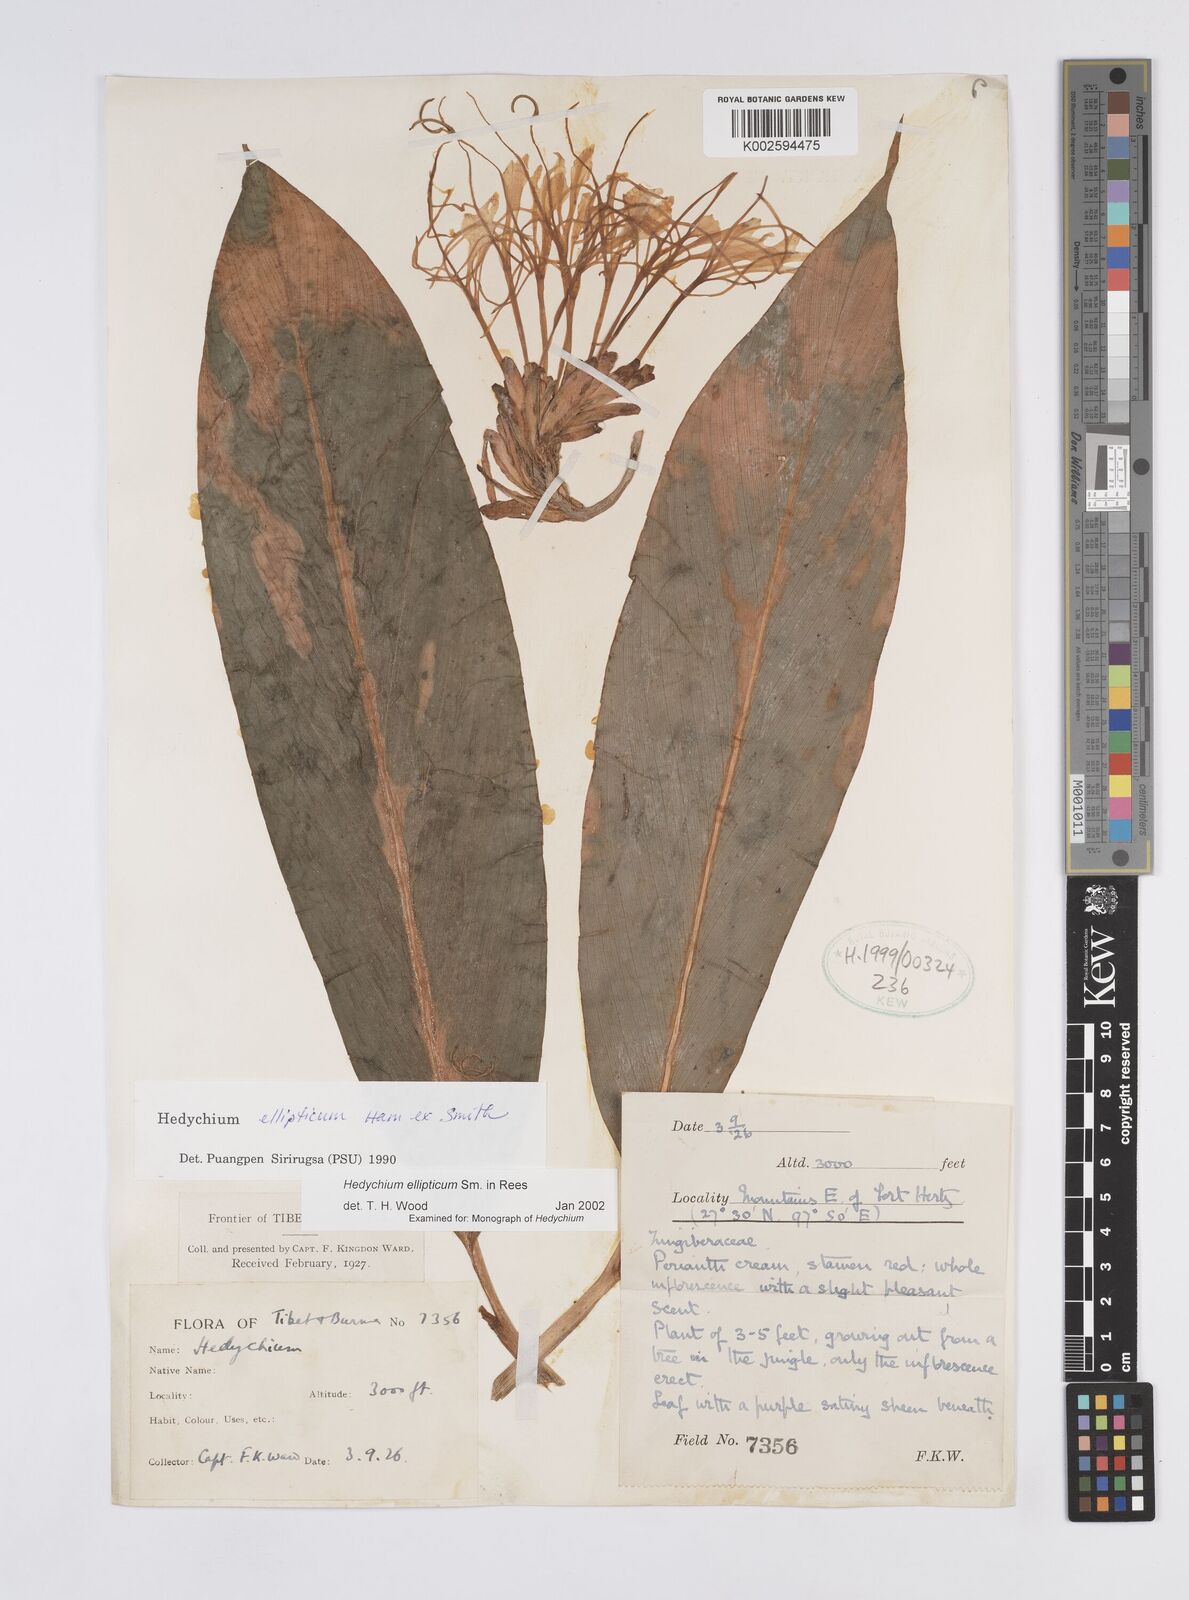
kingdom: Plantae
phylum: Tracheophyta
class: Liliopsida
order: Zingiberales
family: Zingiberaceae
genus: Hedychium
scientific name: Hedychium ellipticum
